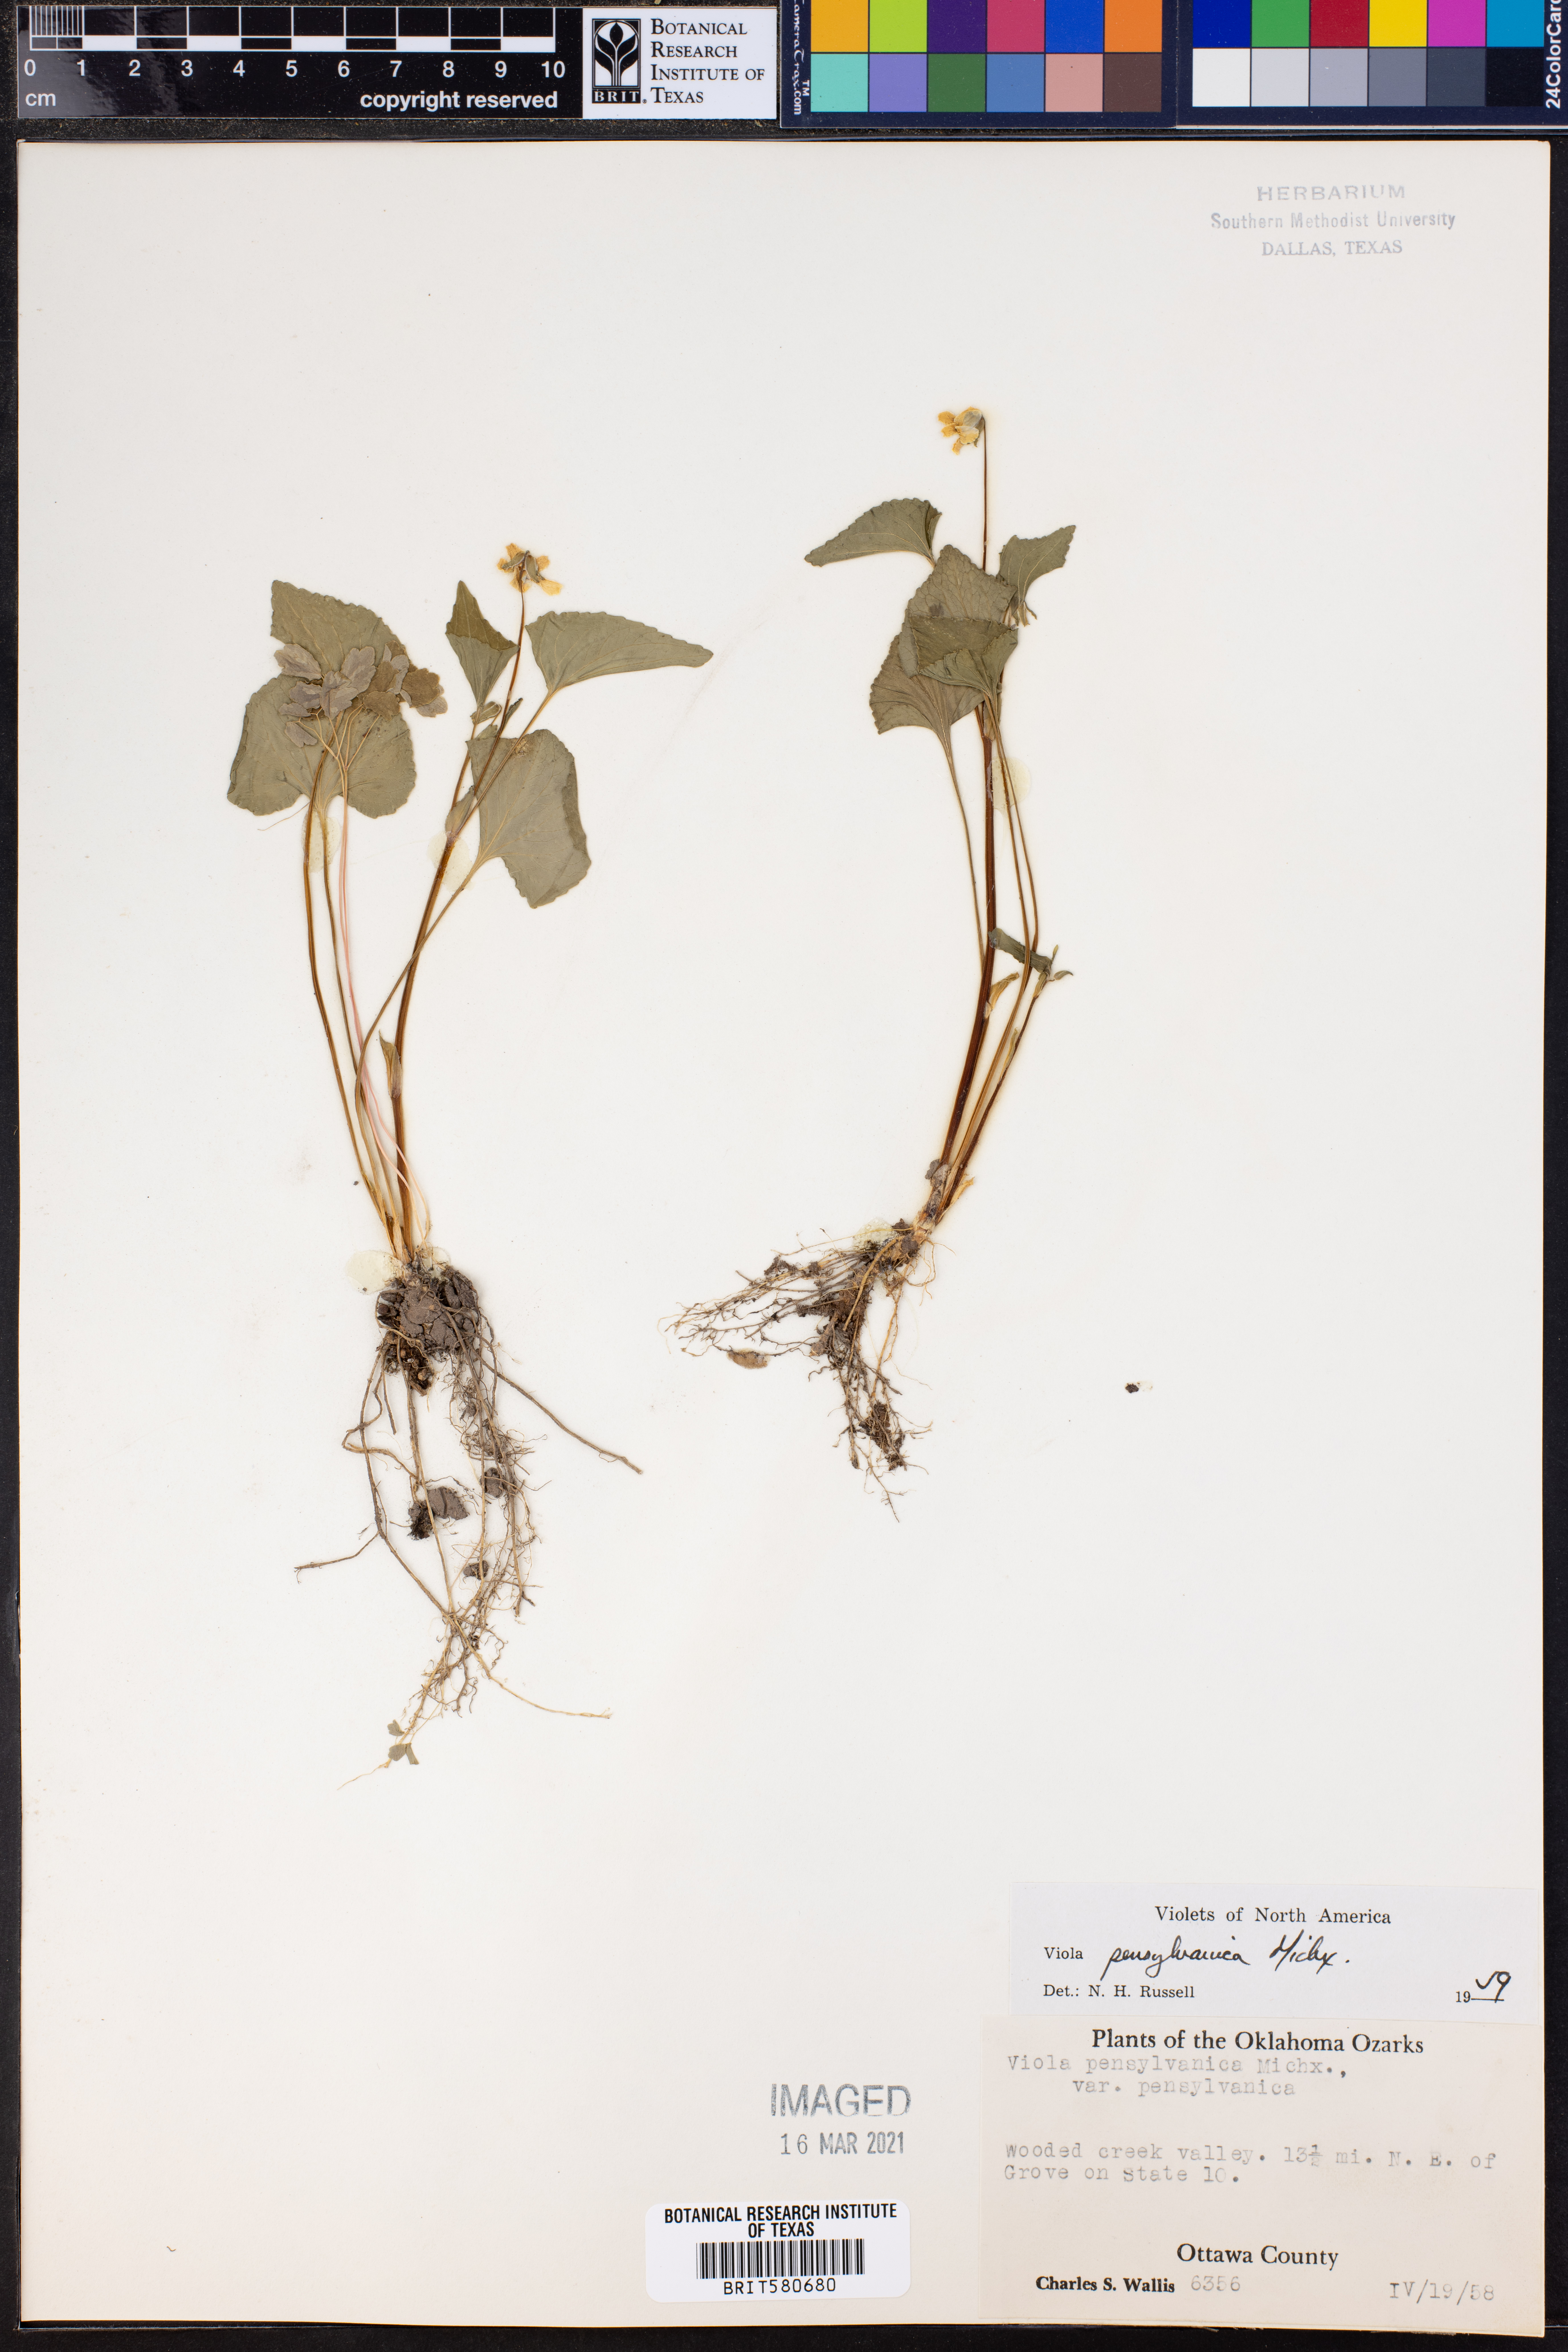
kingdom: Plantae
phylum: Tracheophyta
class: Magnoliopsida
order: Malpighiales
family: Violaceae
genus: Viola
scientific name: Viola pubescens
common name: Yellow forest violet
